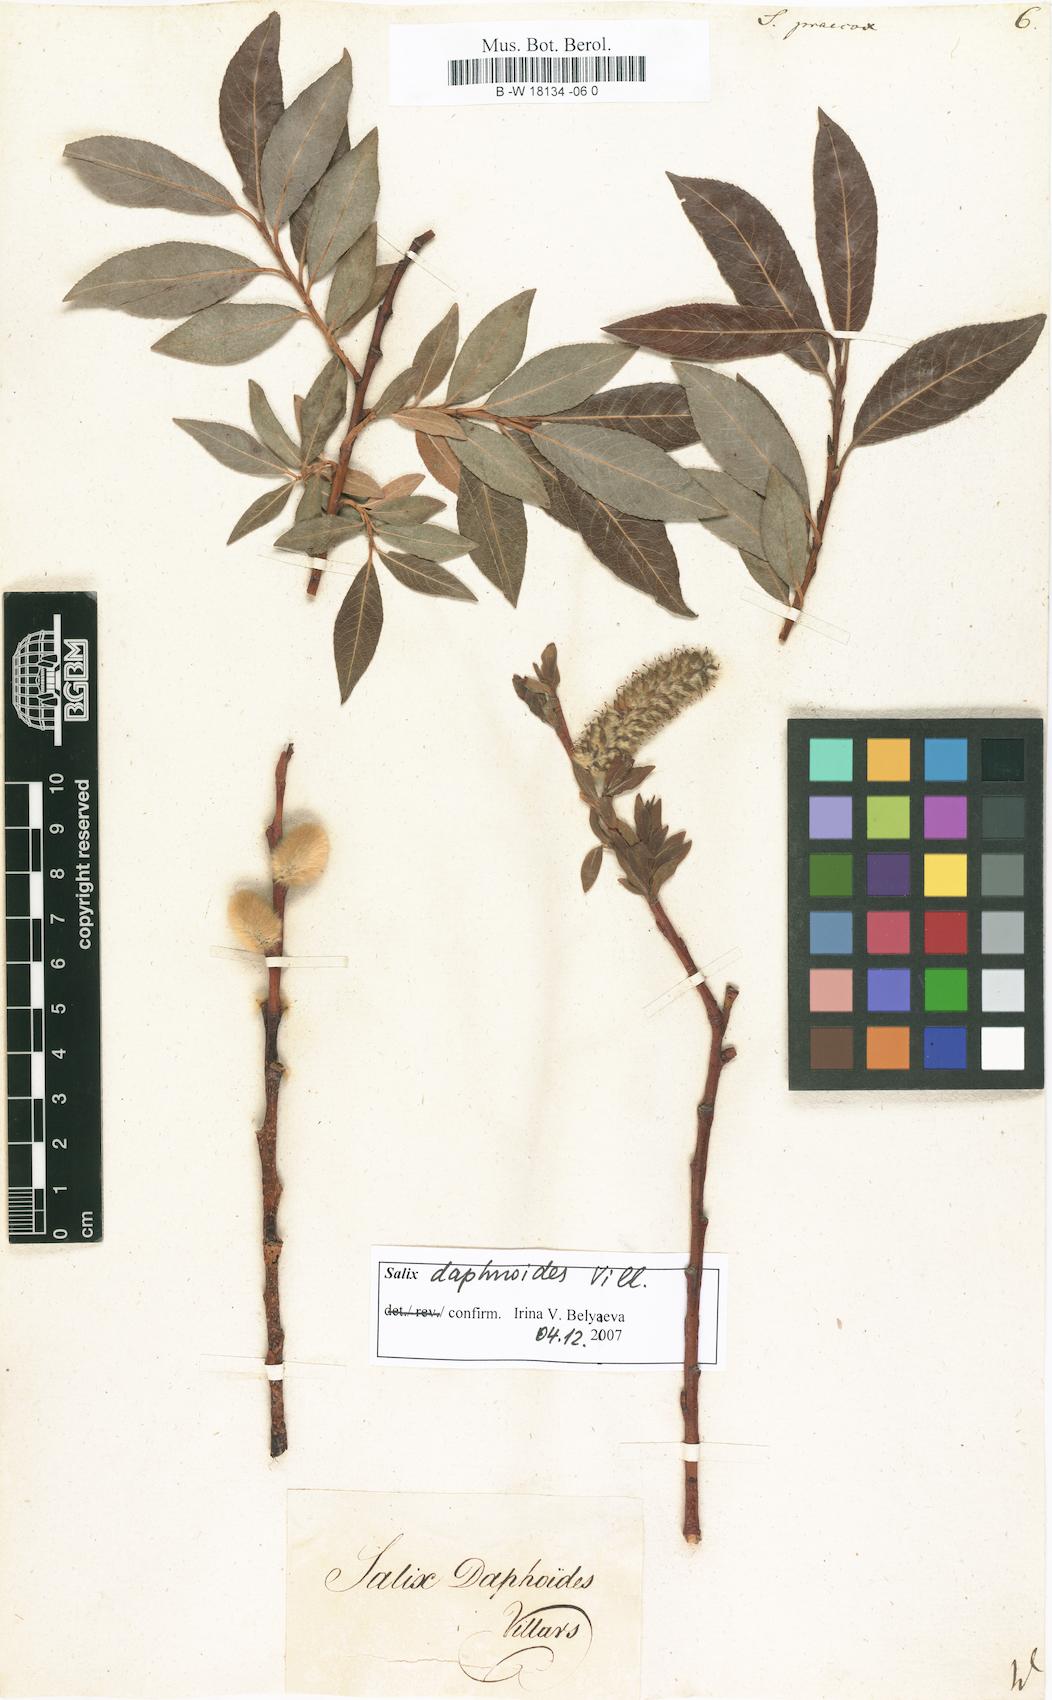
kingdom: Plantae
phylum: Tracheophyta
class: Magnoliopsida
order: Malpighiales
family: Salicaceae
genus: Salix
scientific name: Salix
